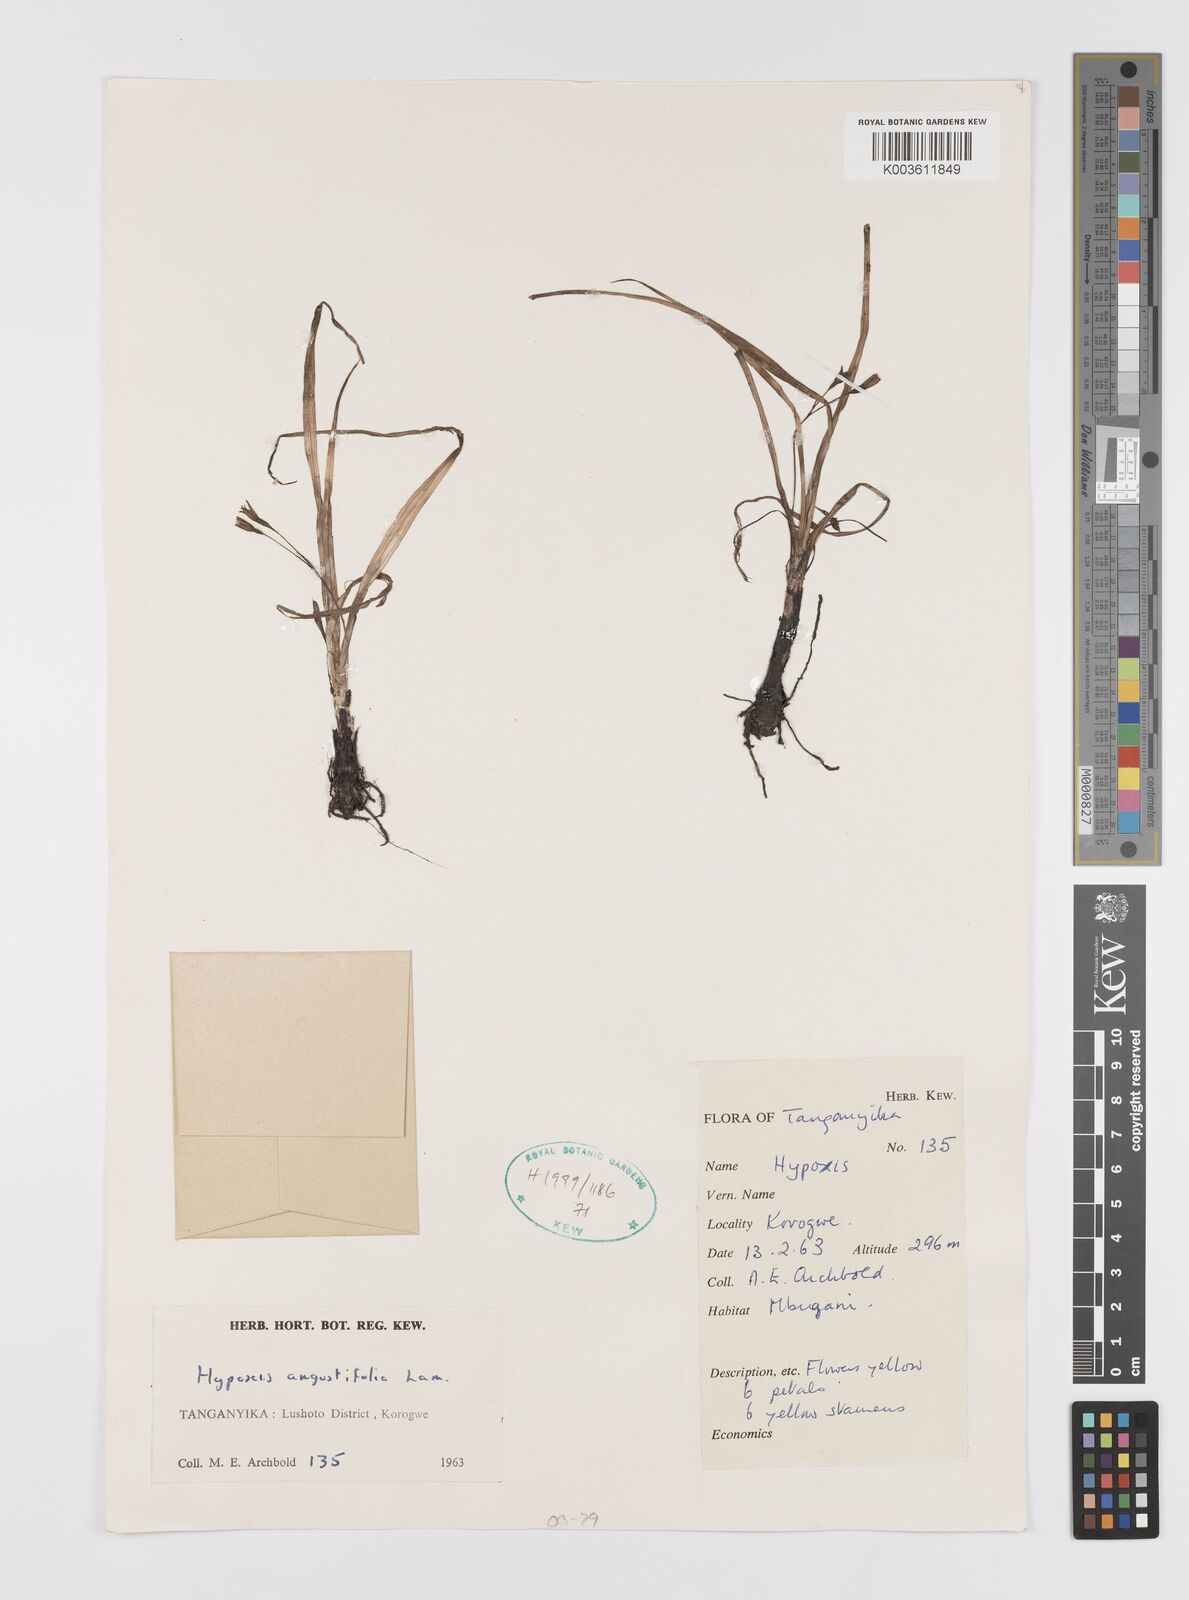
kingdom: Plantae
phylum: Tracheophyta
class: Liliopsida
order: Asparagales
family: Hypoxidaceae
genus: Hypoxis
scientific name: Hypoxis angustifolia
